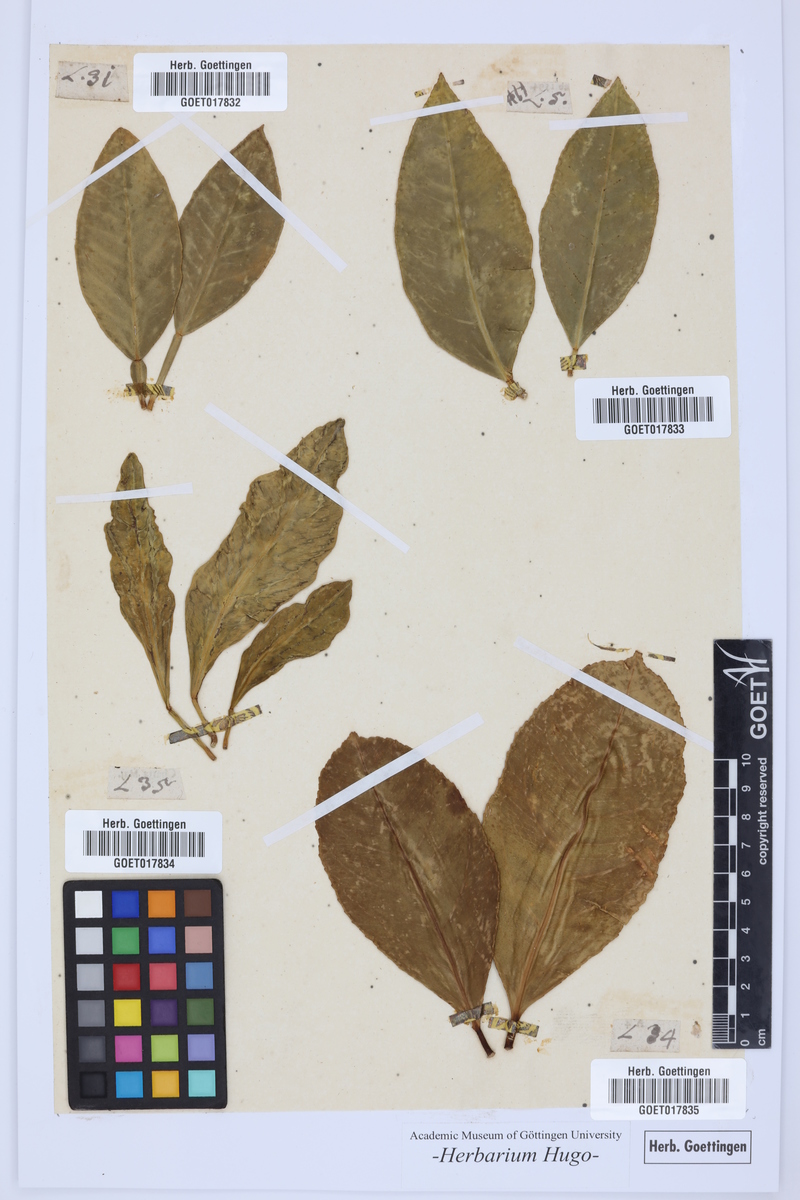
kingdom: Plantae
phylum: Tracheophyta
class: Magnoliopsida
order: Sapindales
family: Rutaceae
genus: Citrus
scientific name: Citrus
